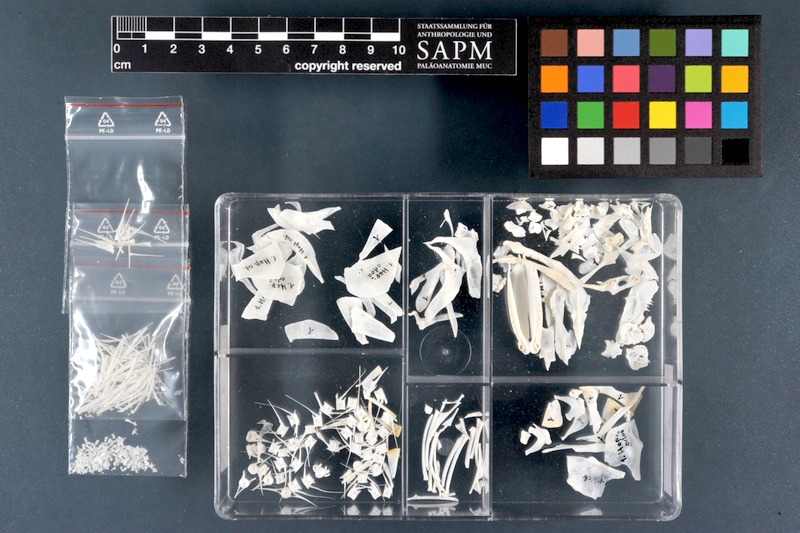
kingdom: Animalia
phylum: Chordata
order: Characiformes
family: Hepsetidae
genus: Hepsetus
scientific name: Hepsetus odoe
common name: African pike
